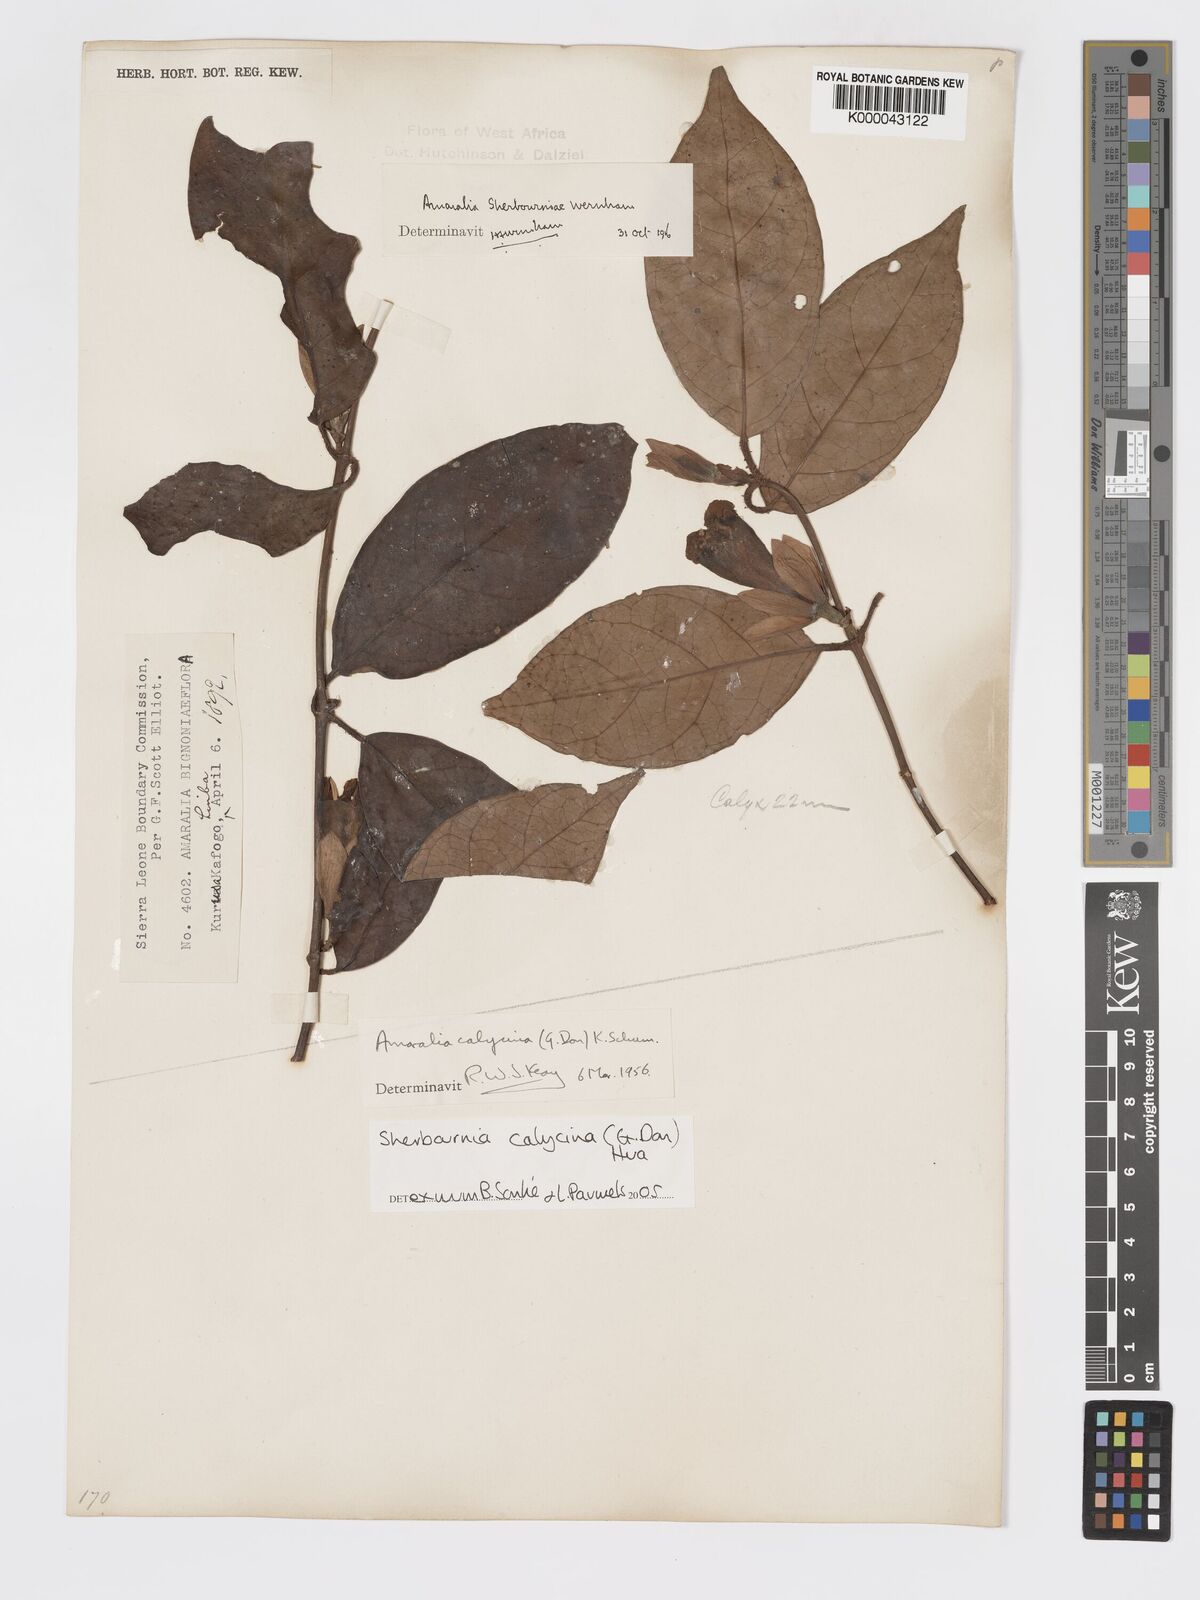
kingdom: Plantae
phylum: Tracheophyta
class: Magnoliopsida
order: Gentianales
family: Rubiaceae
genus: Sherbournia
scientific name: Sherbournia calycina
